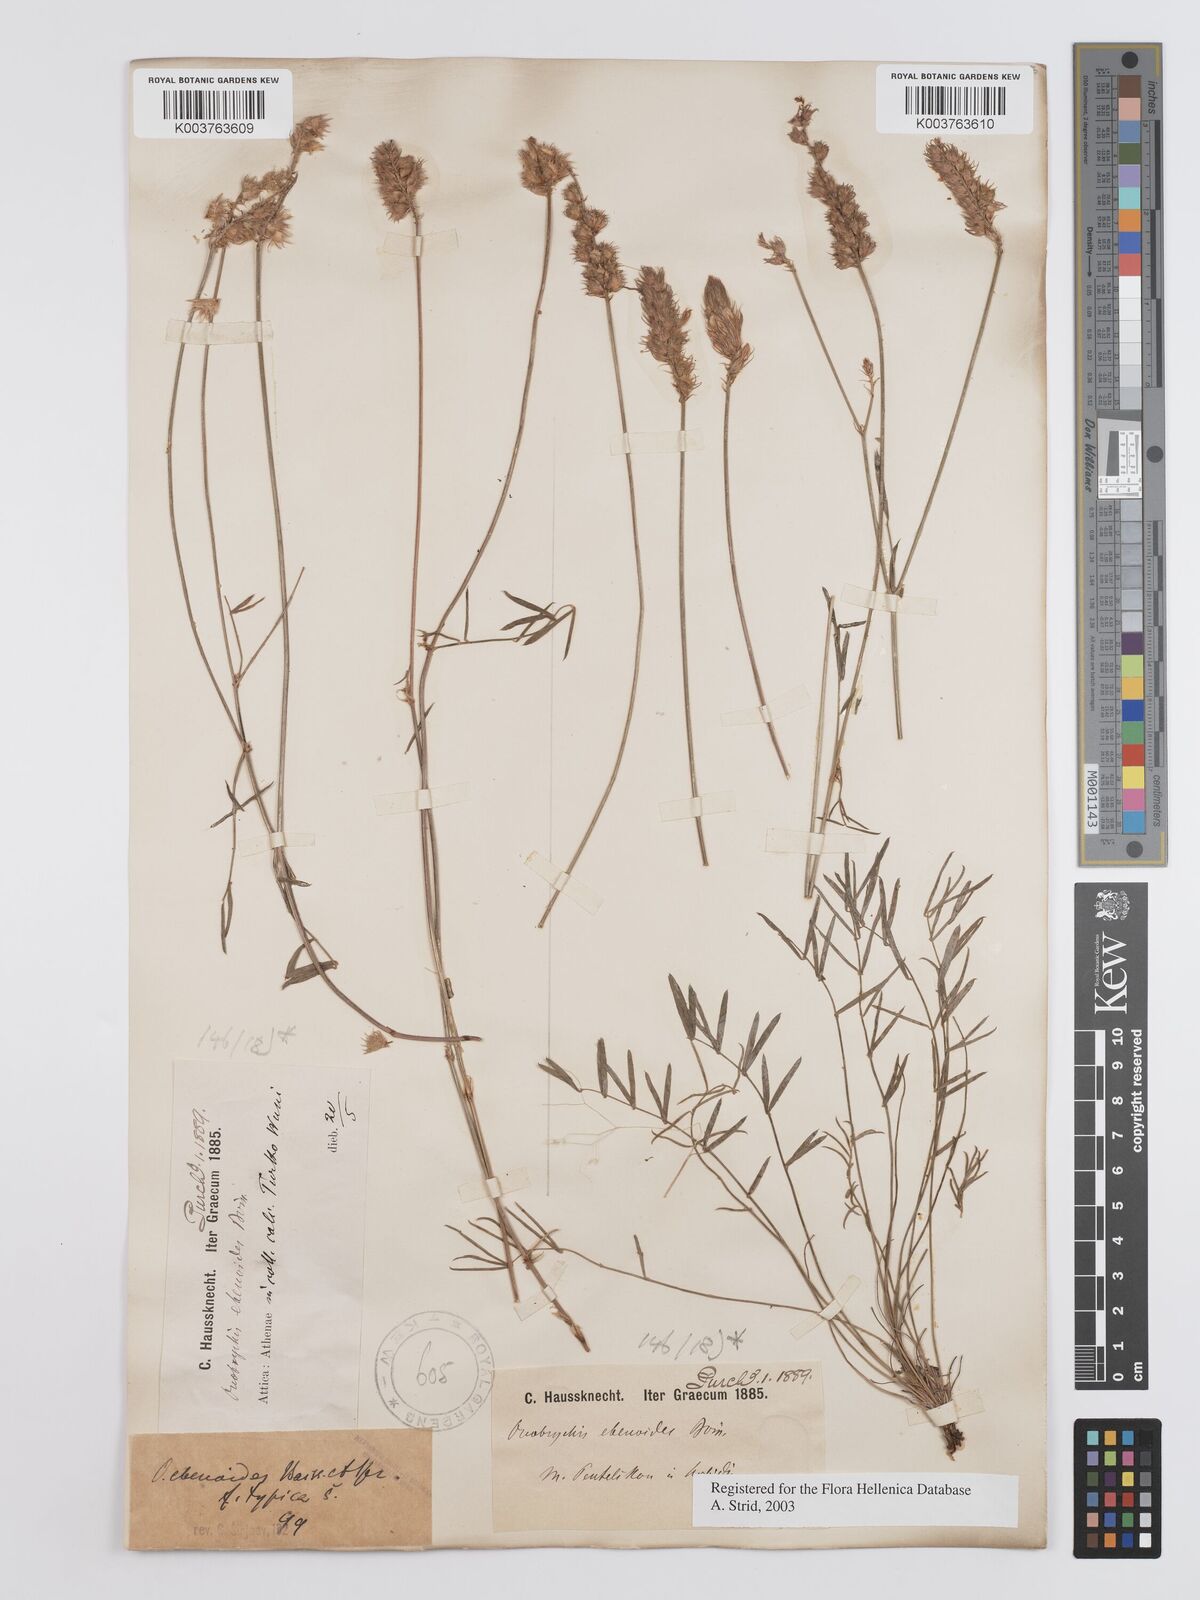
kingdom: Plantae
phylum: Tracheophyta
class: Magnoliopsida
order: Fabales
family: Fabaceae
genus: Onobrychis
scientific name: Onobrychis ebenoides
